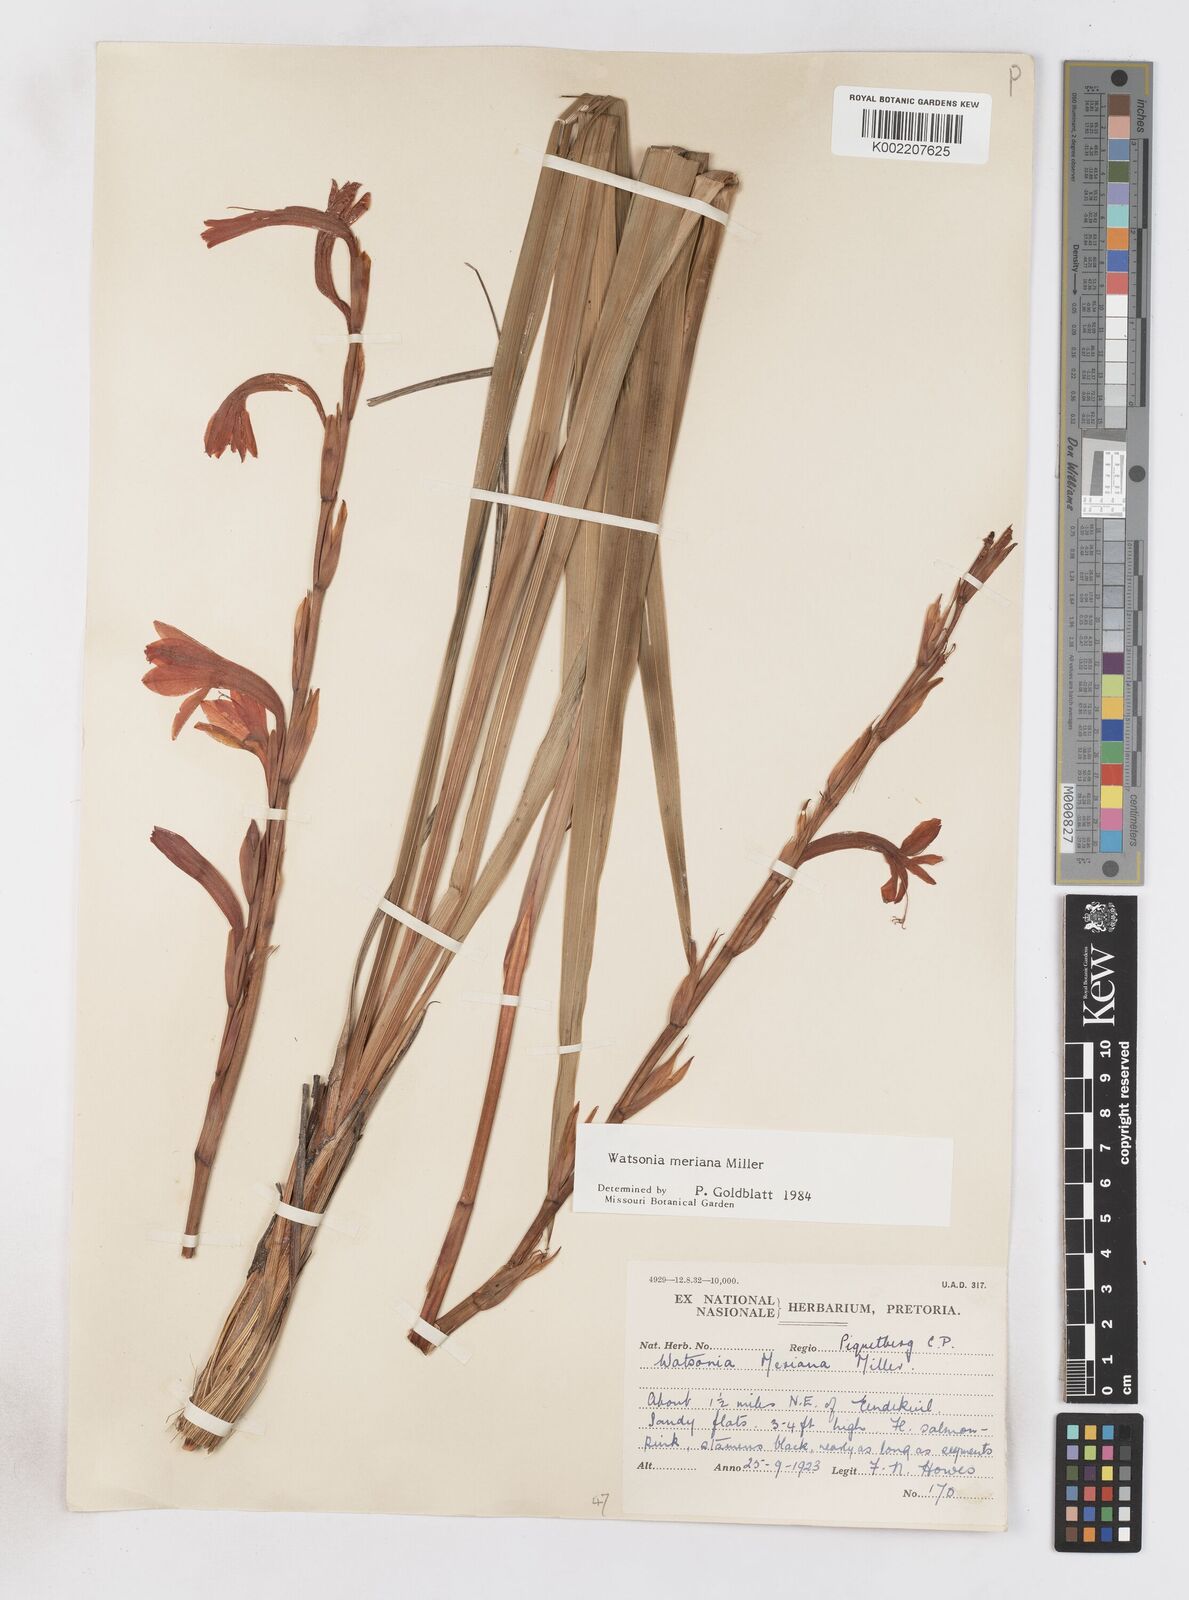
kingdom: Plantae
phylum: Tracheophyta
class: Liliopsida
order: Asparagales
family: Iridaceae
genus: Watsonia
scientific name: Watsonia meriana
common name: Bulbil bugle-lily
